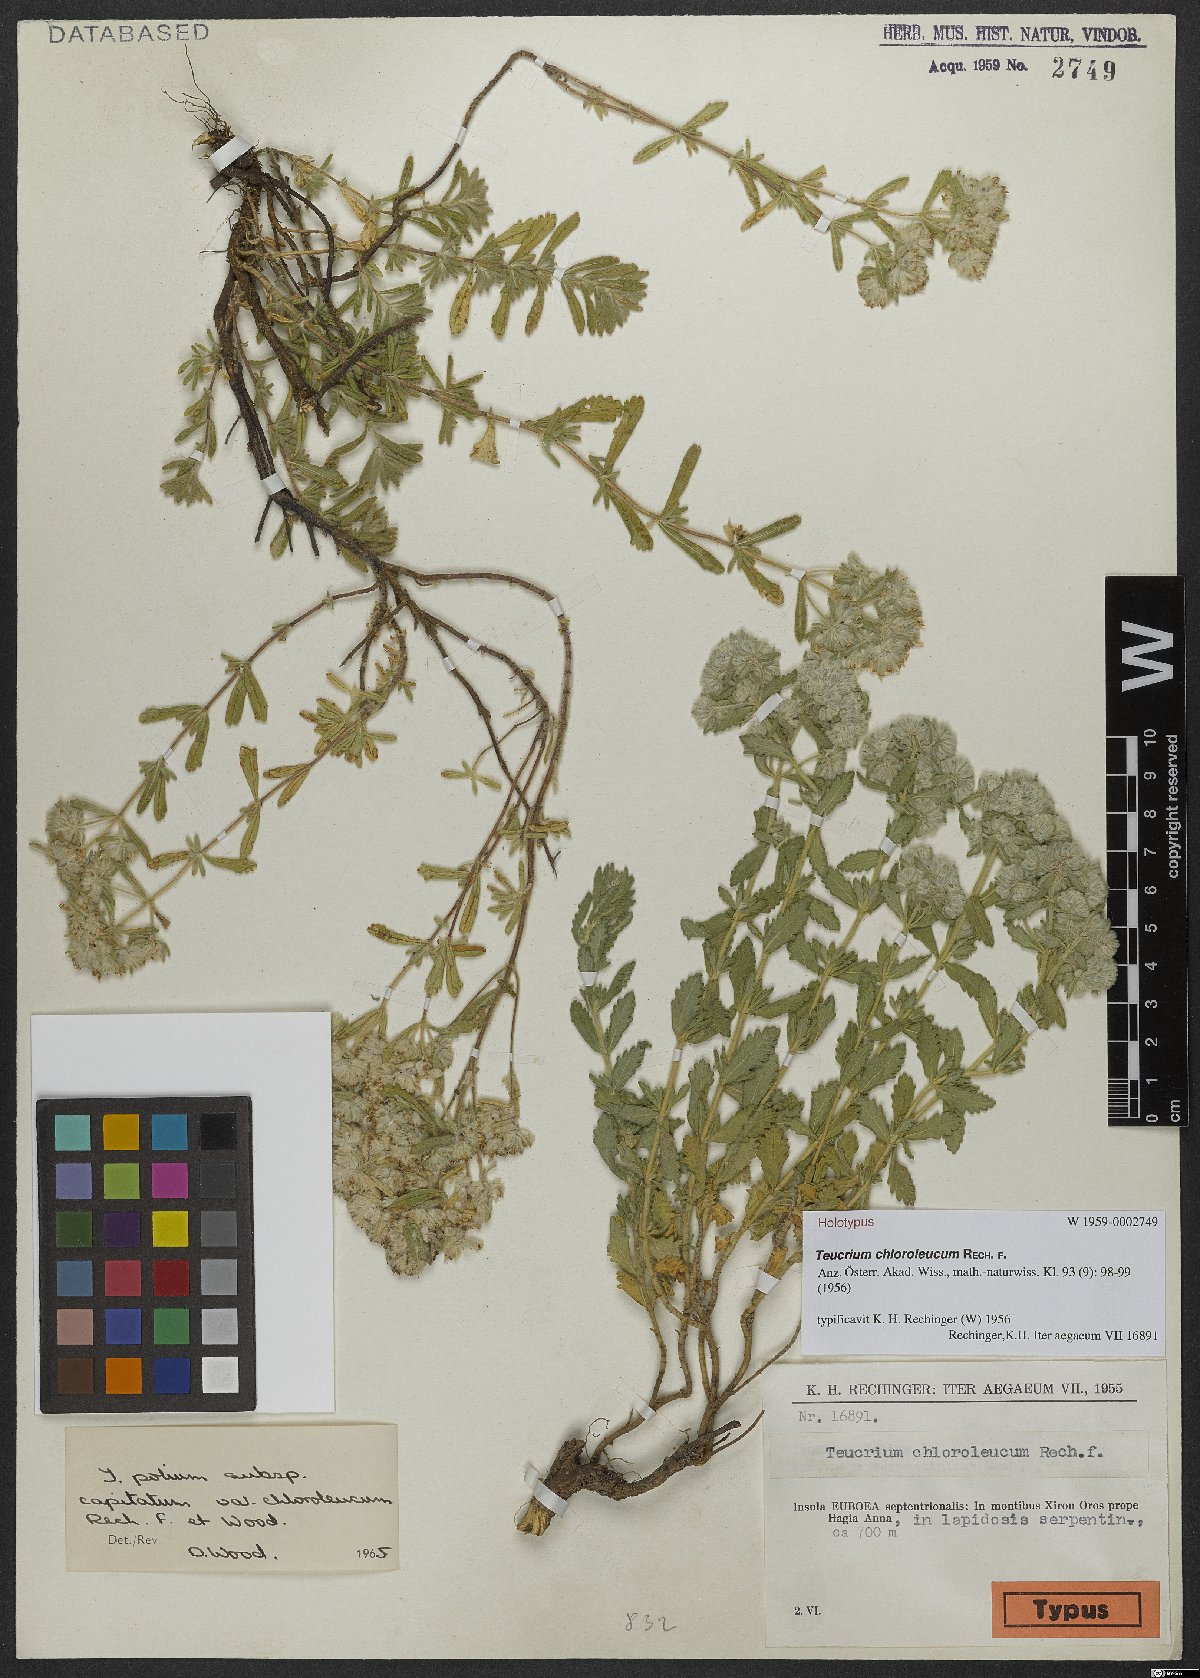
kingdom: Plantae
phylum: Tracheophyta
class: Magnoliopsida
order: Lamiales
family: Lamiaceae
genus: Teucrium
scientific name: Teucrium chloroleucum
